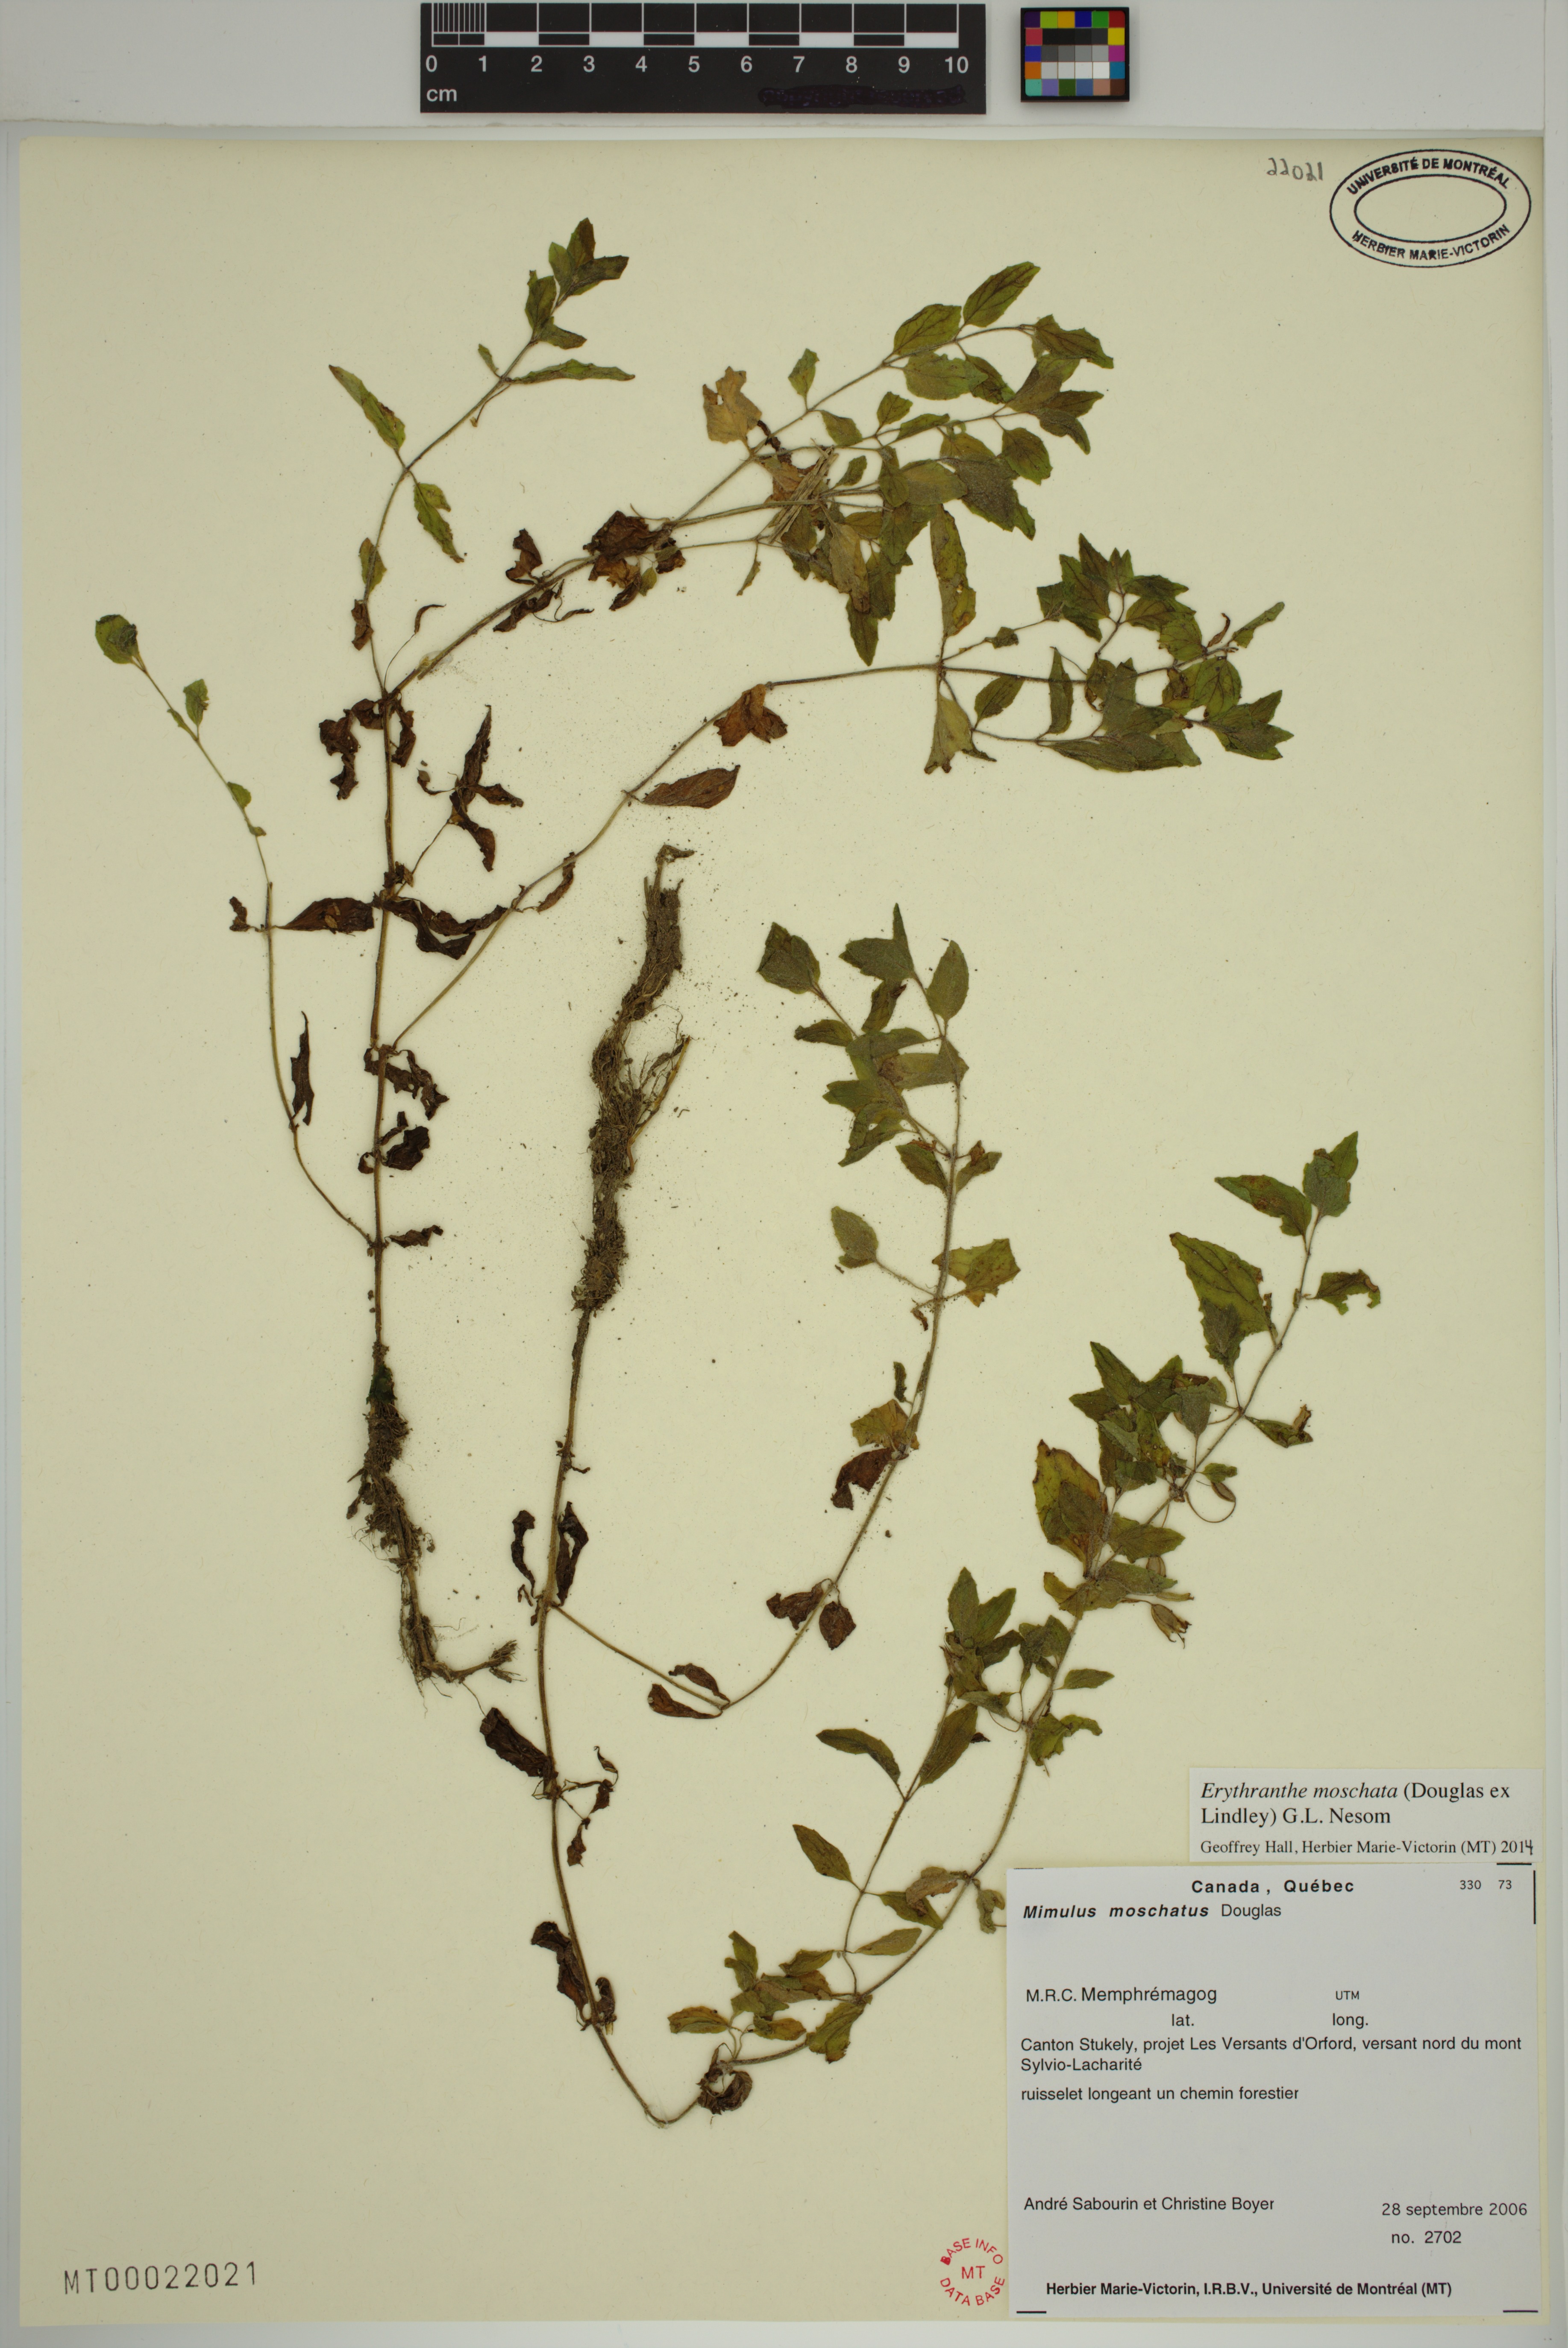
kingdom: Plantae
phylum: Tracheophyta
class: Magnoliopsida
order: Lamiales
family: Phrymaceae
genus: Erythranthe
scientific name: Erythranthe moschata
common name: Muskflower
